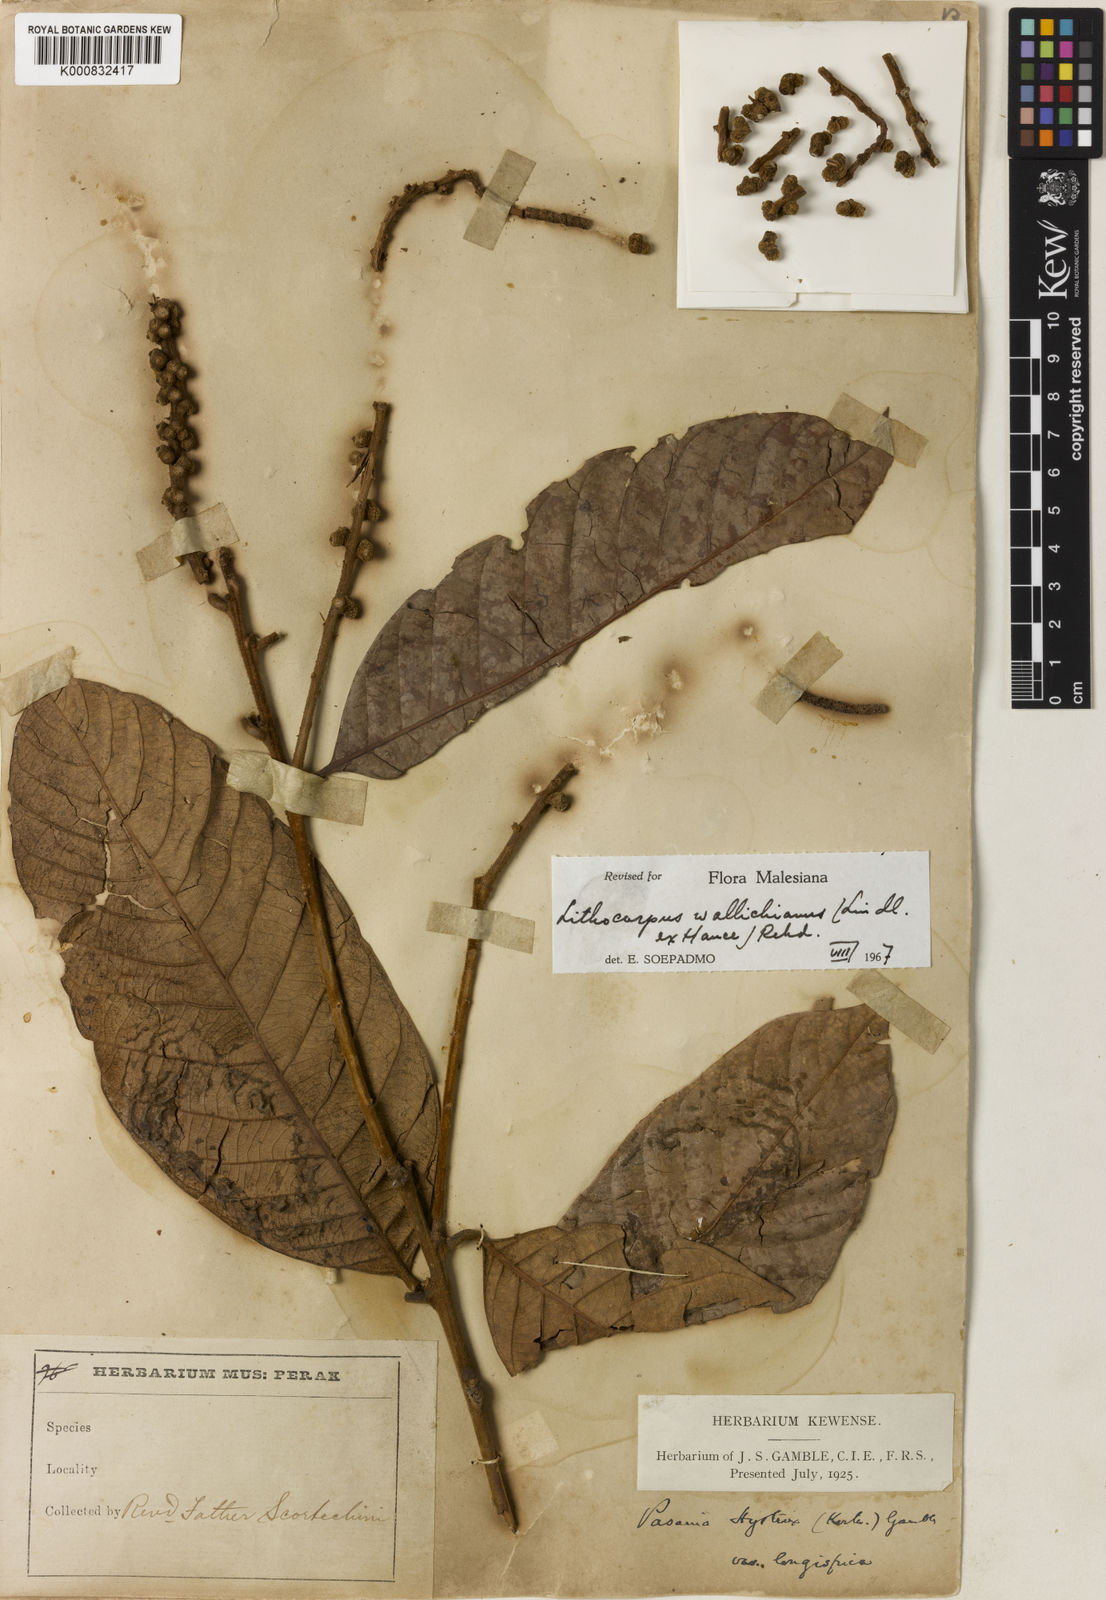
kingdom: Plantae
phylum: Tracheophyta
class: Magnoliopsida
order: Fagales
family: Fagaceae
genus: Lithocarpus
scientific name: Lithocarpus wallichianus
